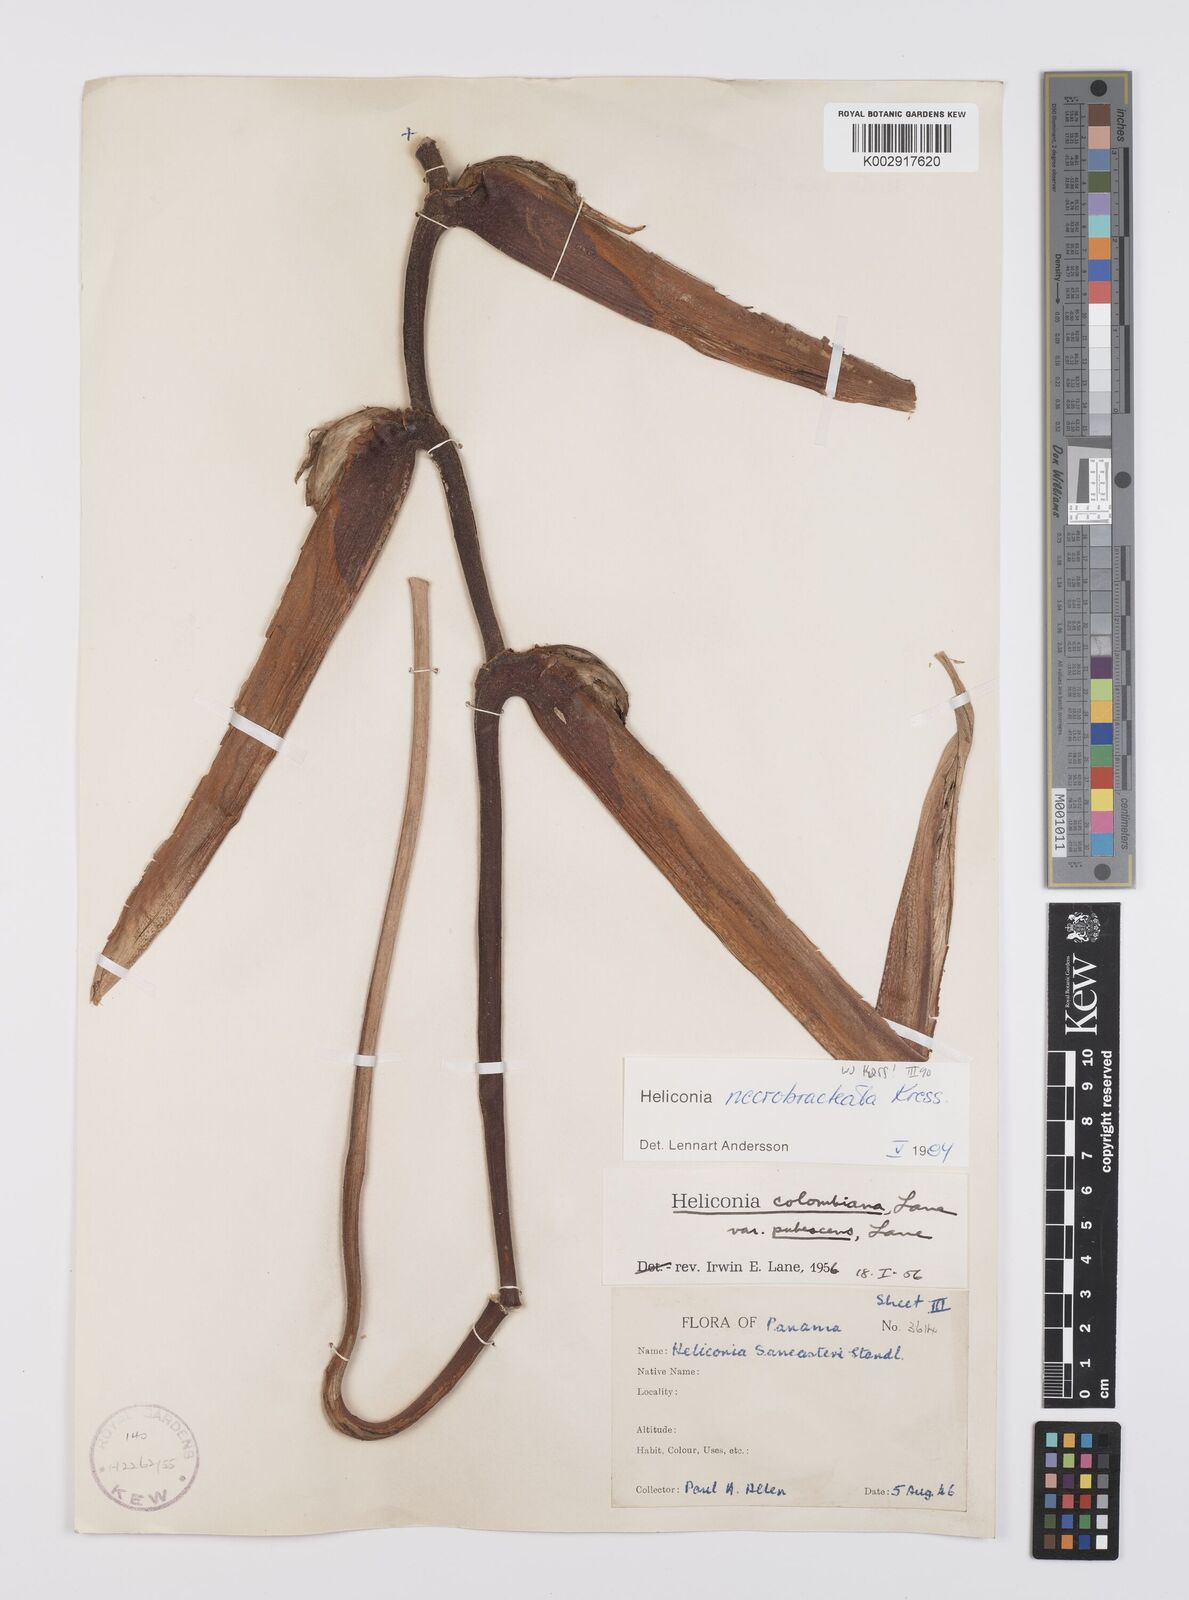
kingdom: Plantae
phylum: Tracheophyta
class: Liliopsida
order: Zingiberales
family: Heliconiaceae
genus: Heliconia
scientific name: Heliconia necrobracteata
